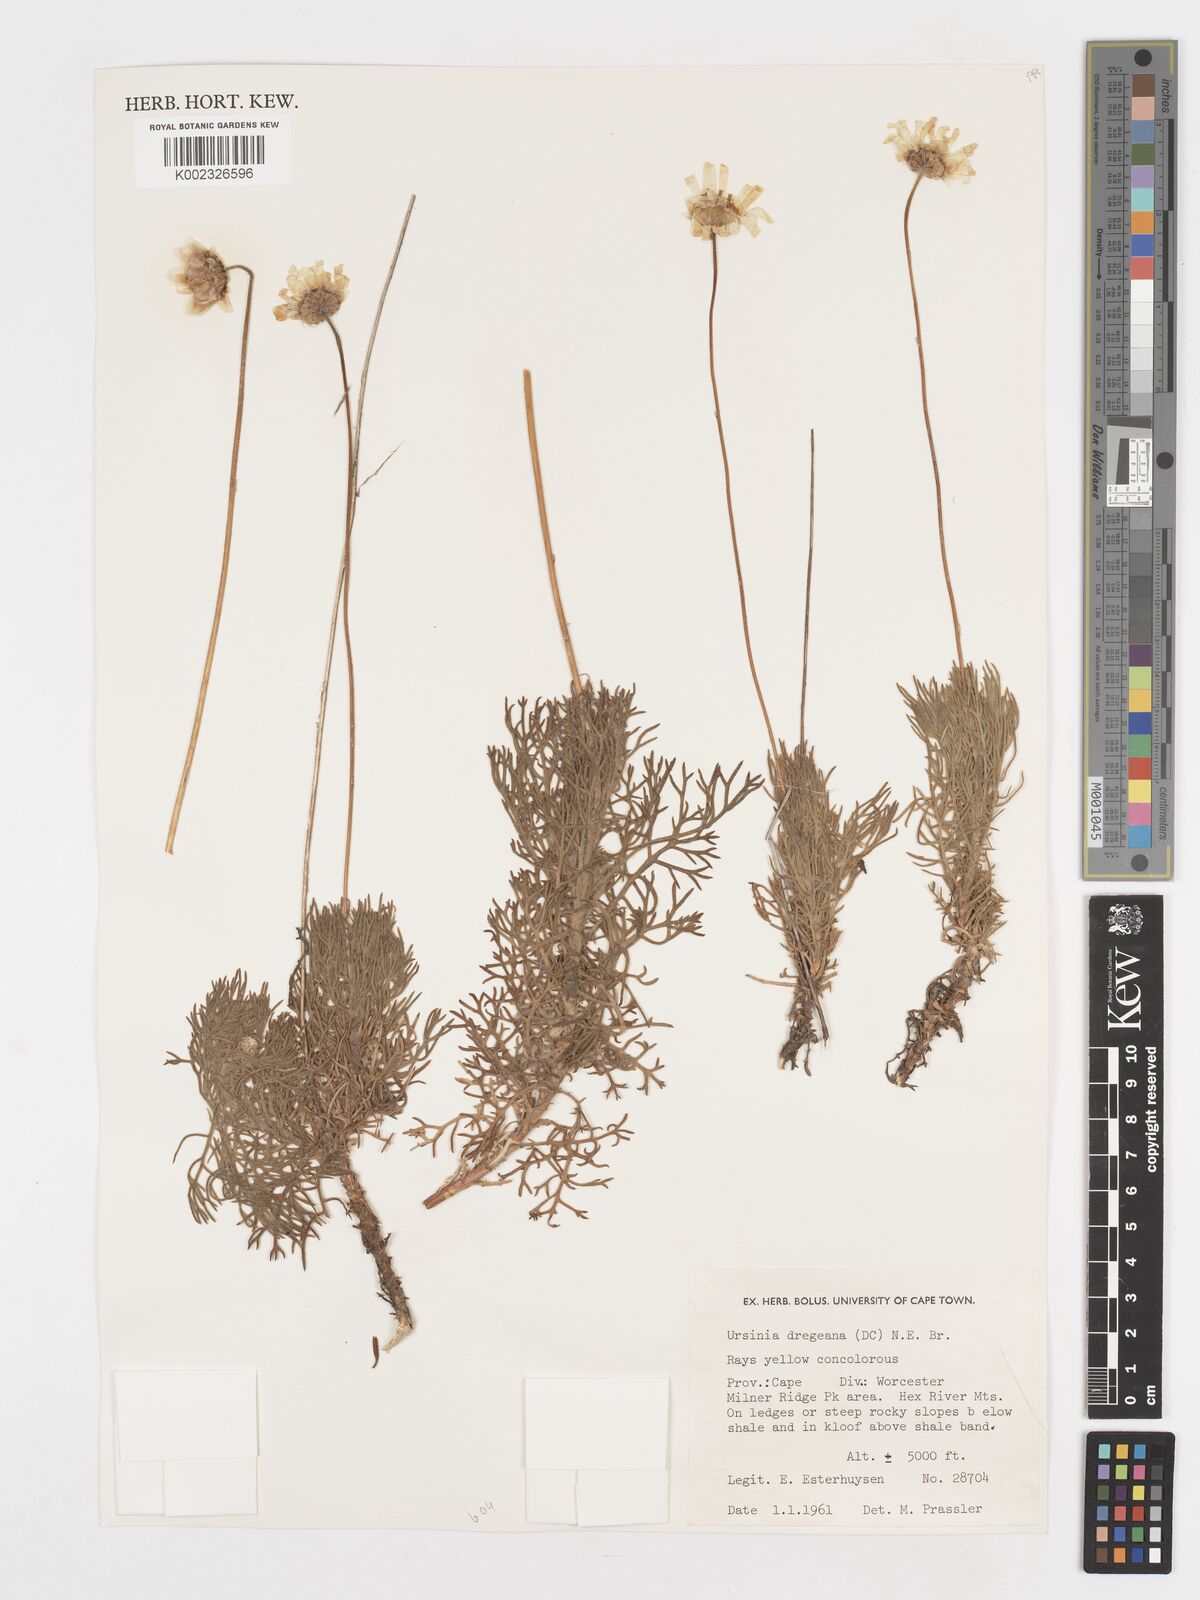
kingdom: Plantae
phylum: Tracheophyta
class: Magnoliopsida
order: Asterales
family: Asteraceae
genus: Ursinia
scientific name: Ursinia dregeana
